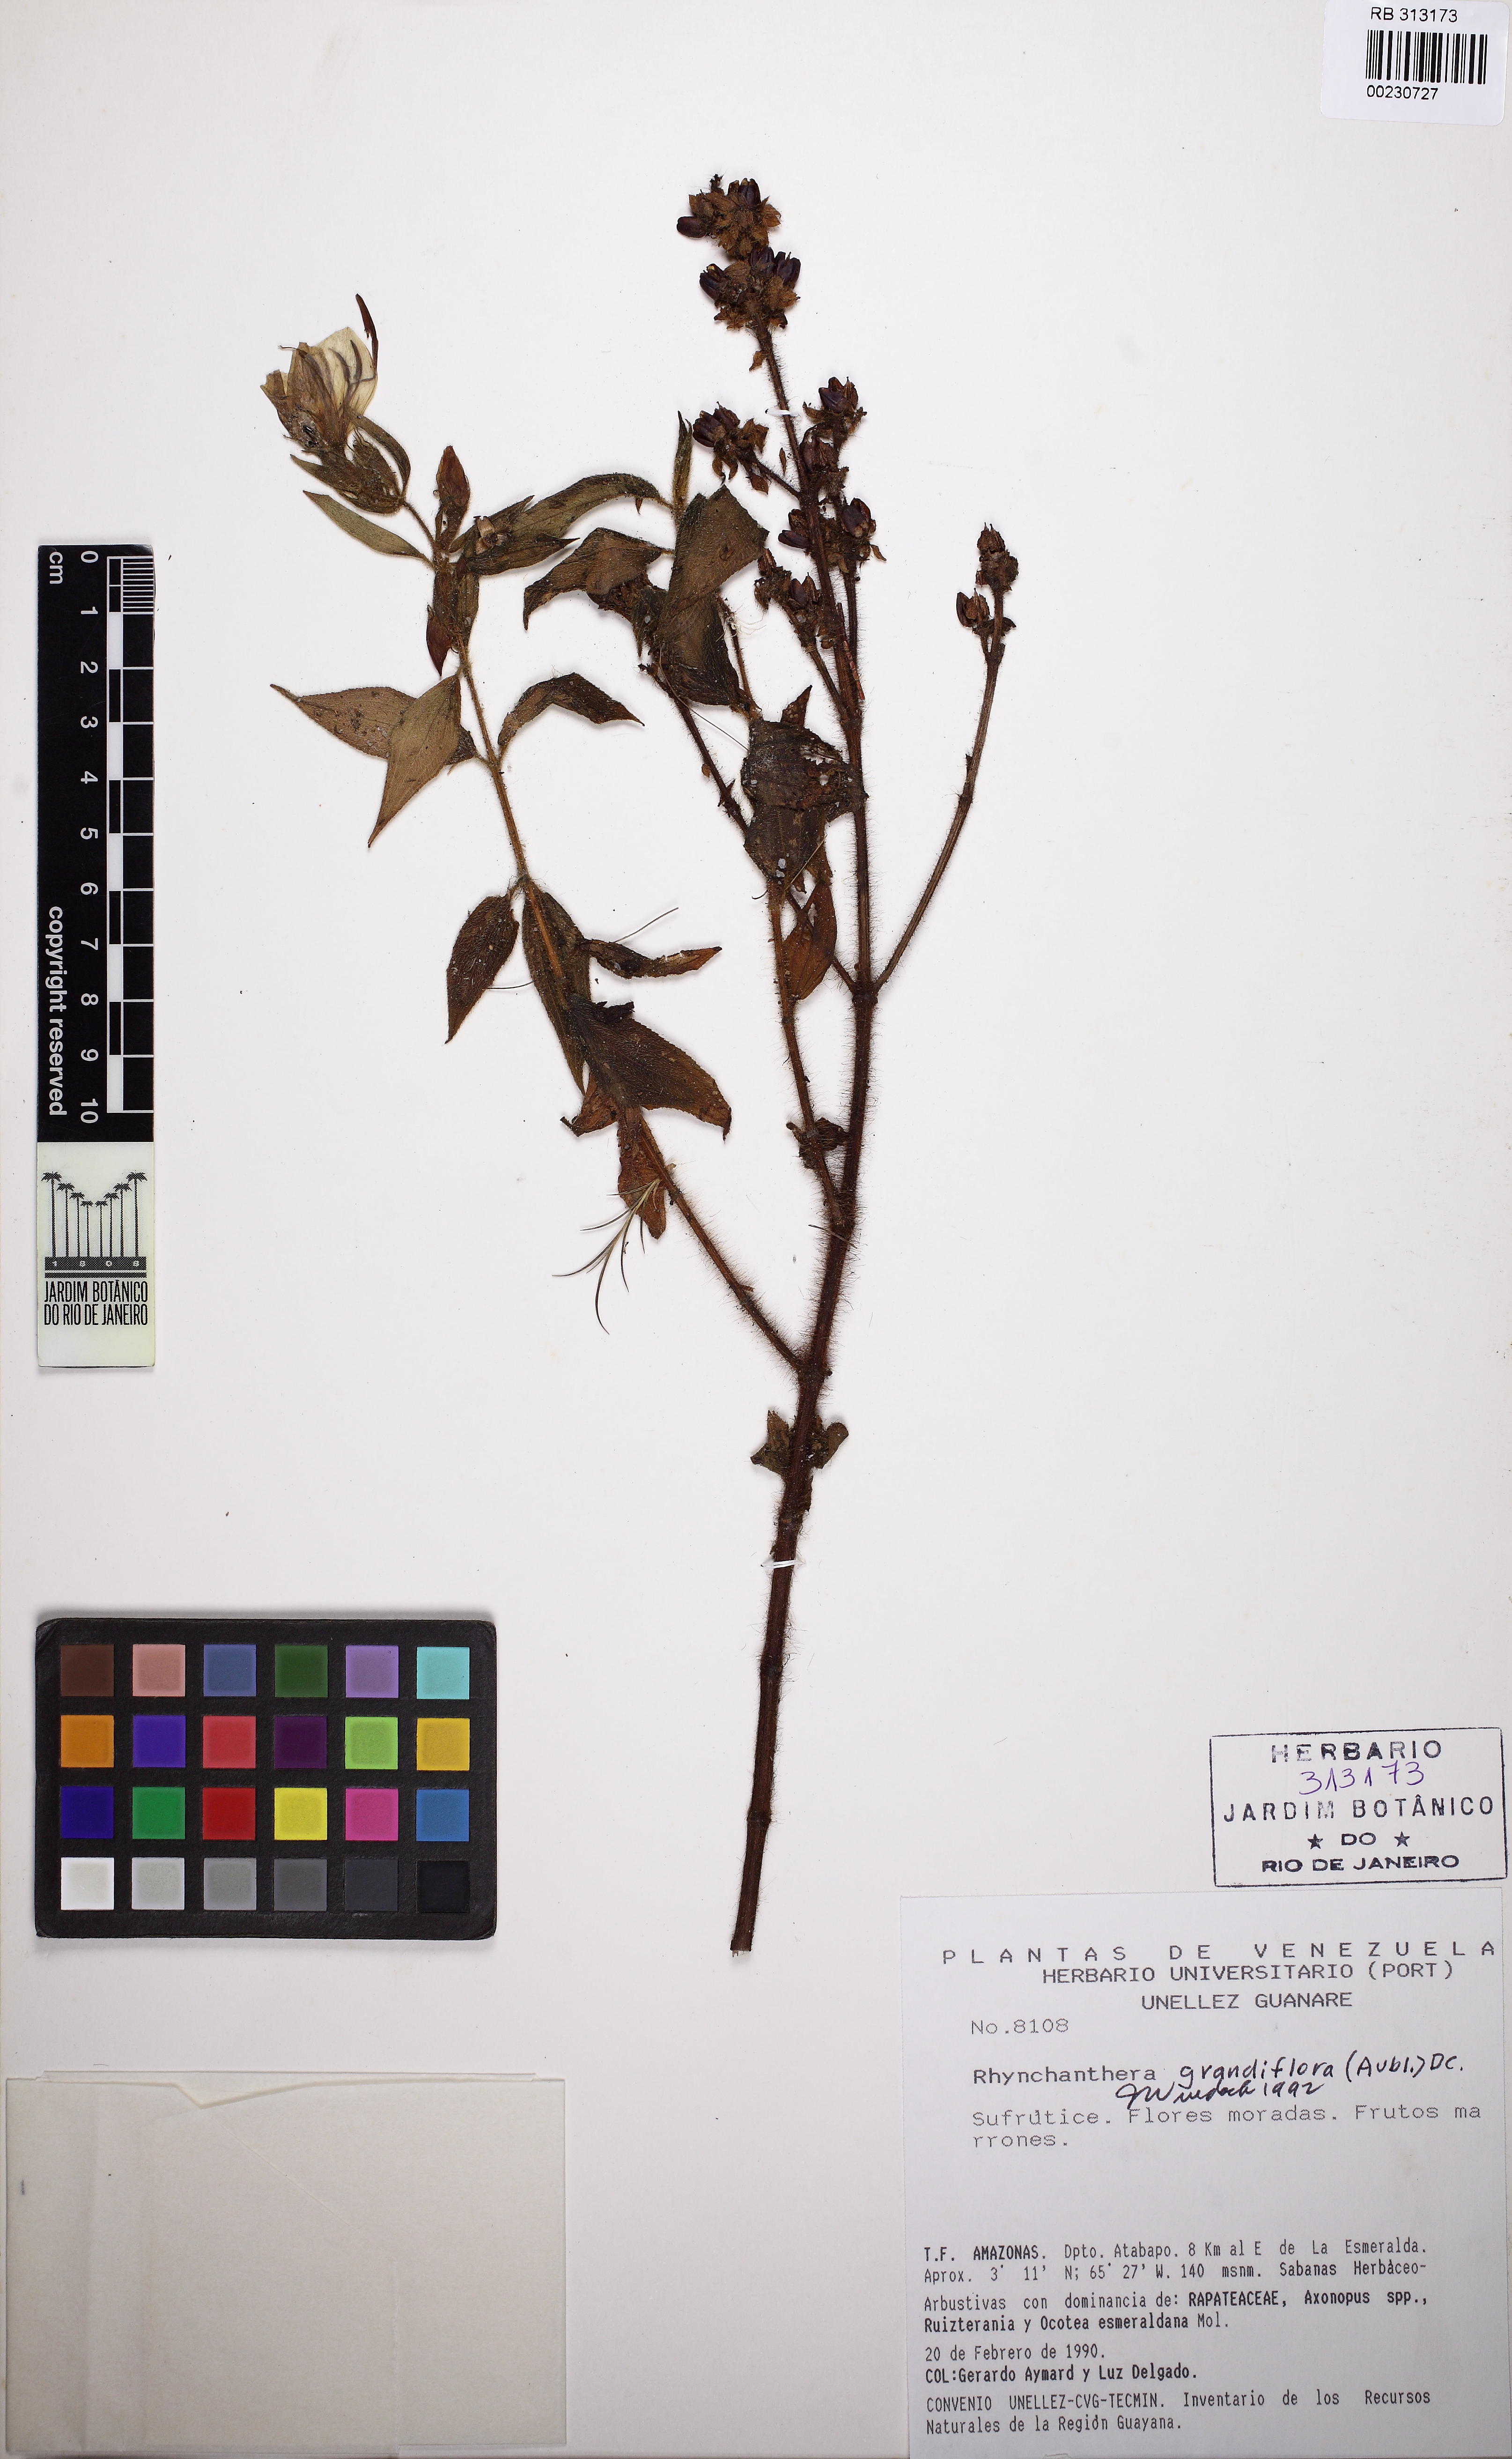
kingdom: Plantae
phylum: Tracheophyta
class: Magnoliopsida
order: Myrtales
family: Melastomataceae
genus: Rhynchanthera
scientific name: Rhynchanthera grandiflora
